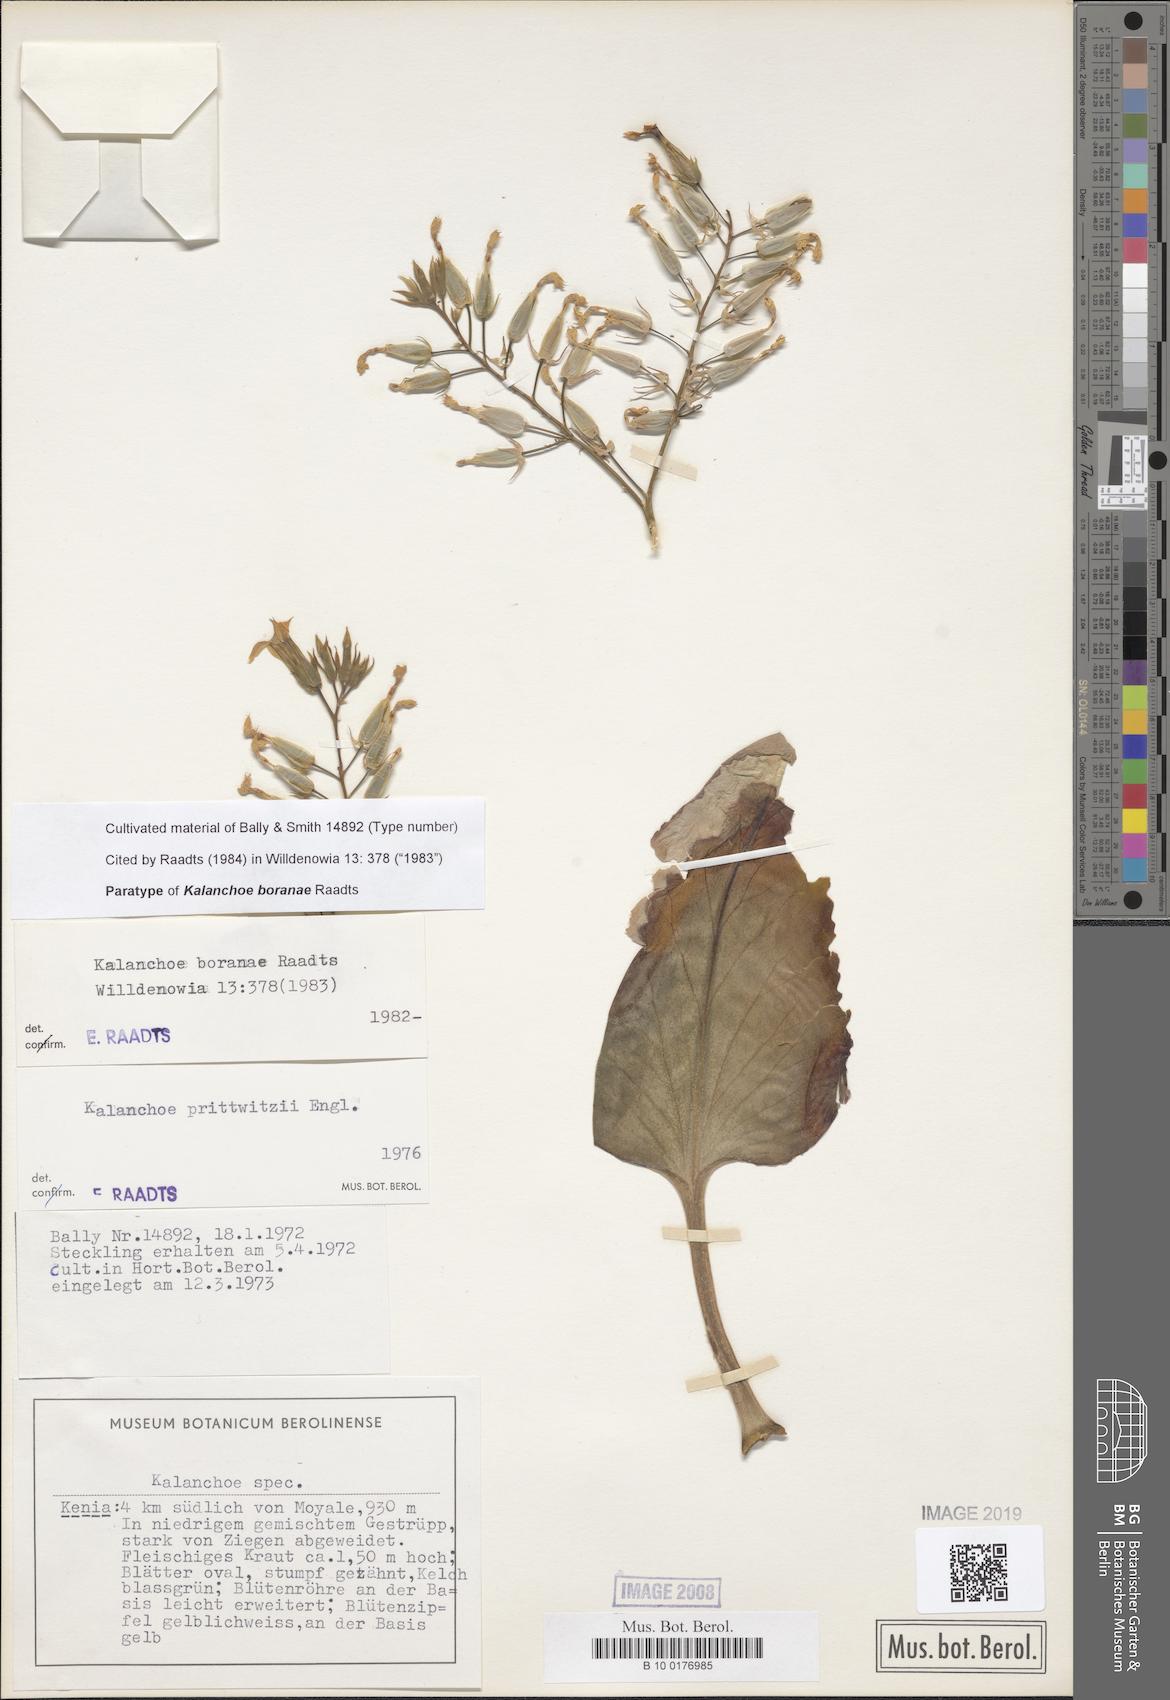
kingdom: Plantae
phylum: Tracheophyta
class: Magnoliopsida
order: Saxifragales
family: Crassulaceae
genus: Kalanchoe
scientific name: Kalanchoe boranae
